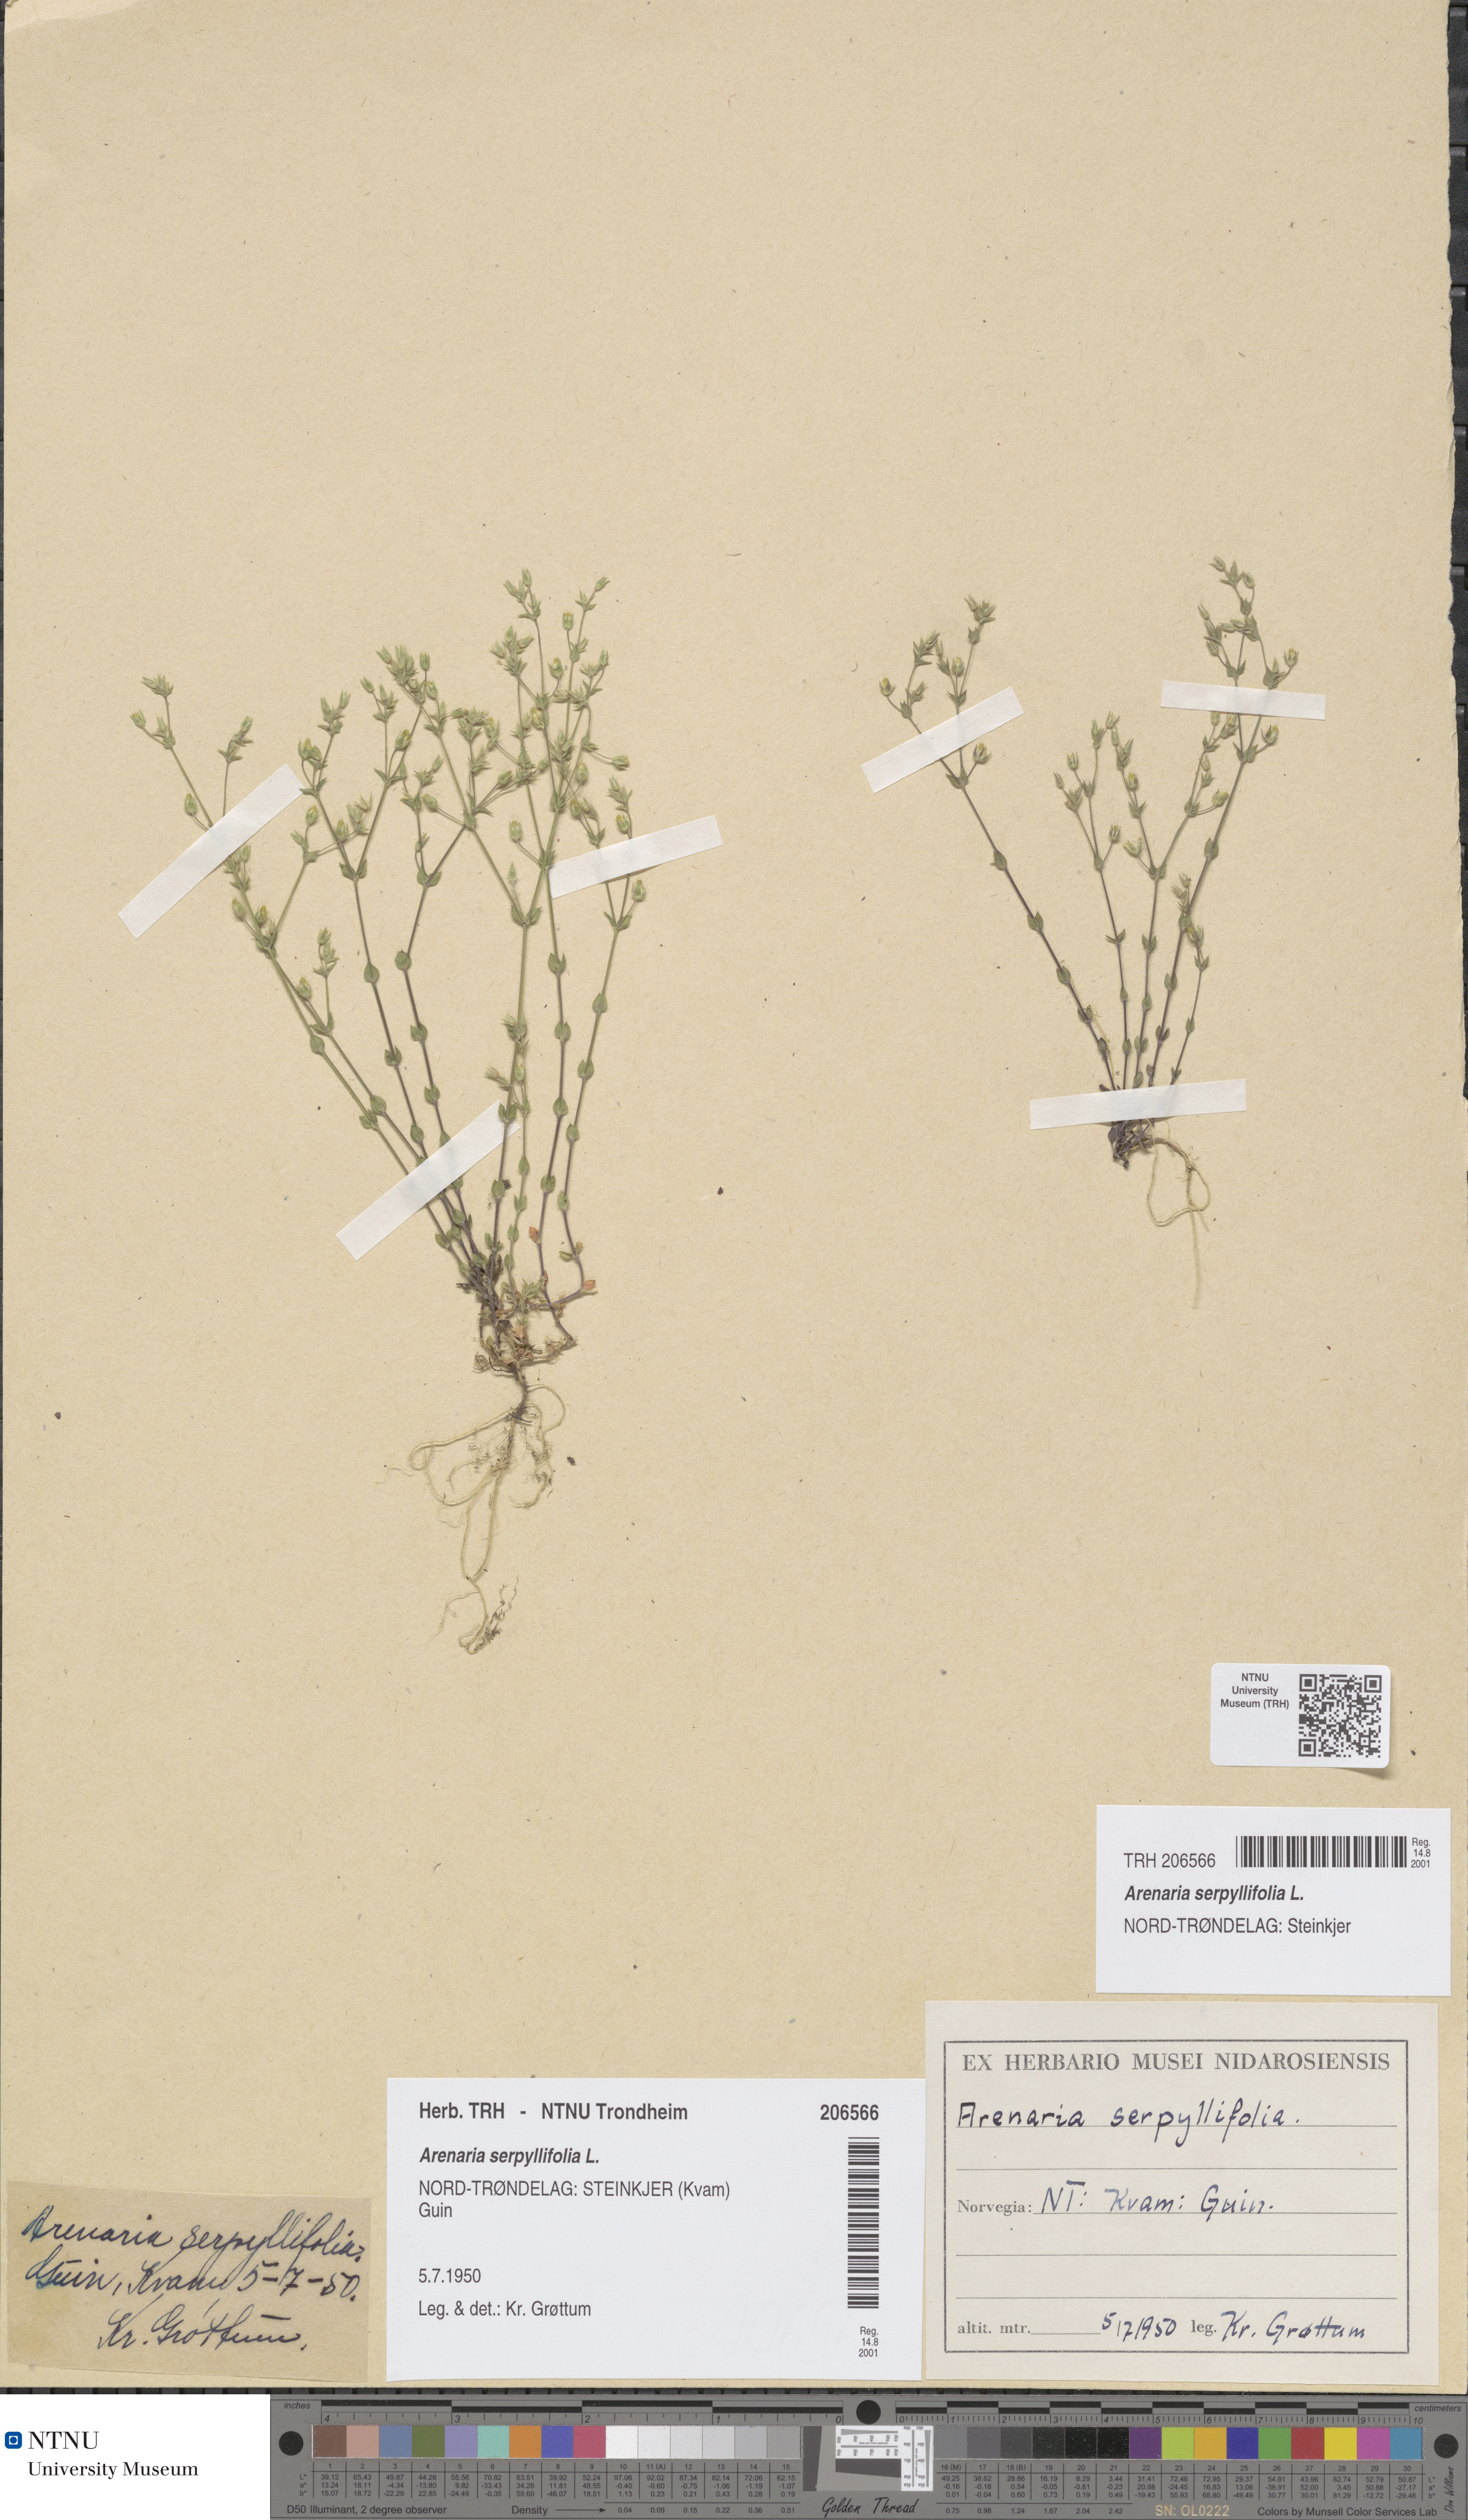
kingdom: Plantae
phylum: Tracheophyta
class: Magnoliopsida
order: Caryophyllales
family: Caryophyllaceae
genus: Arenaria
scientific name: Arenaria serpyllifolia
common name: Thyme-leaved sandwort
